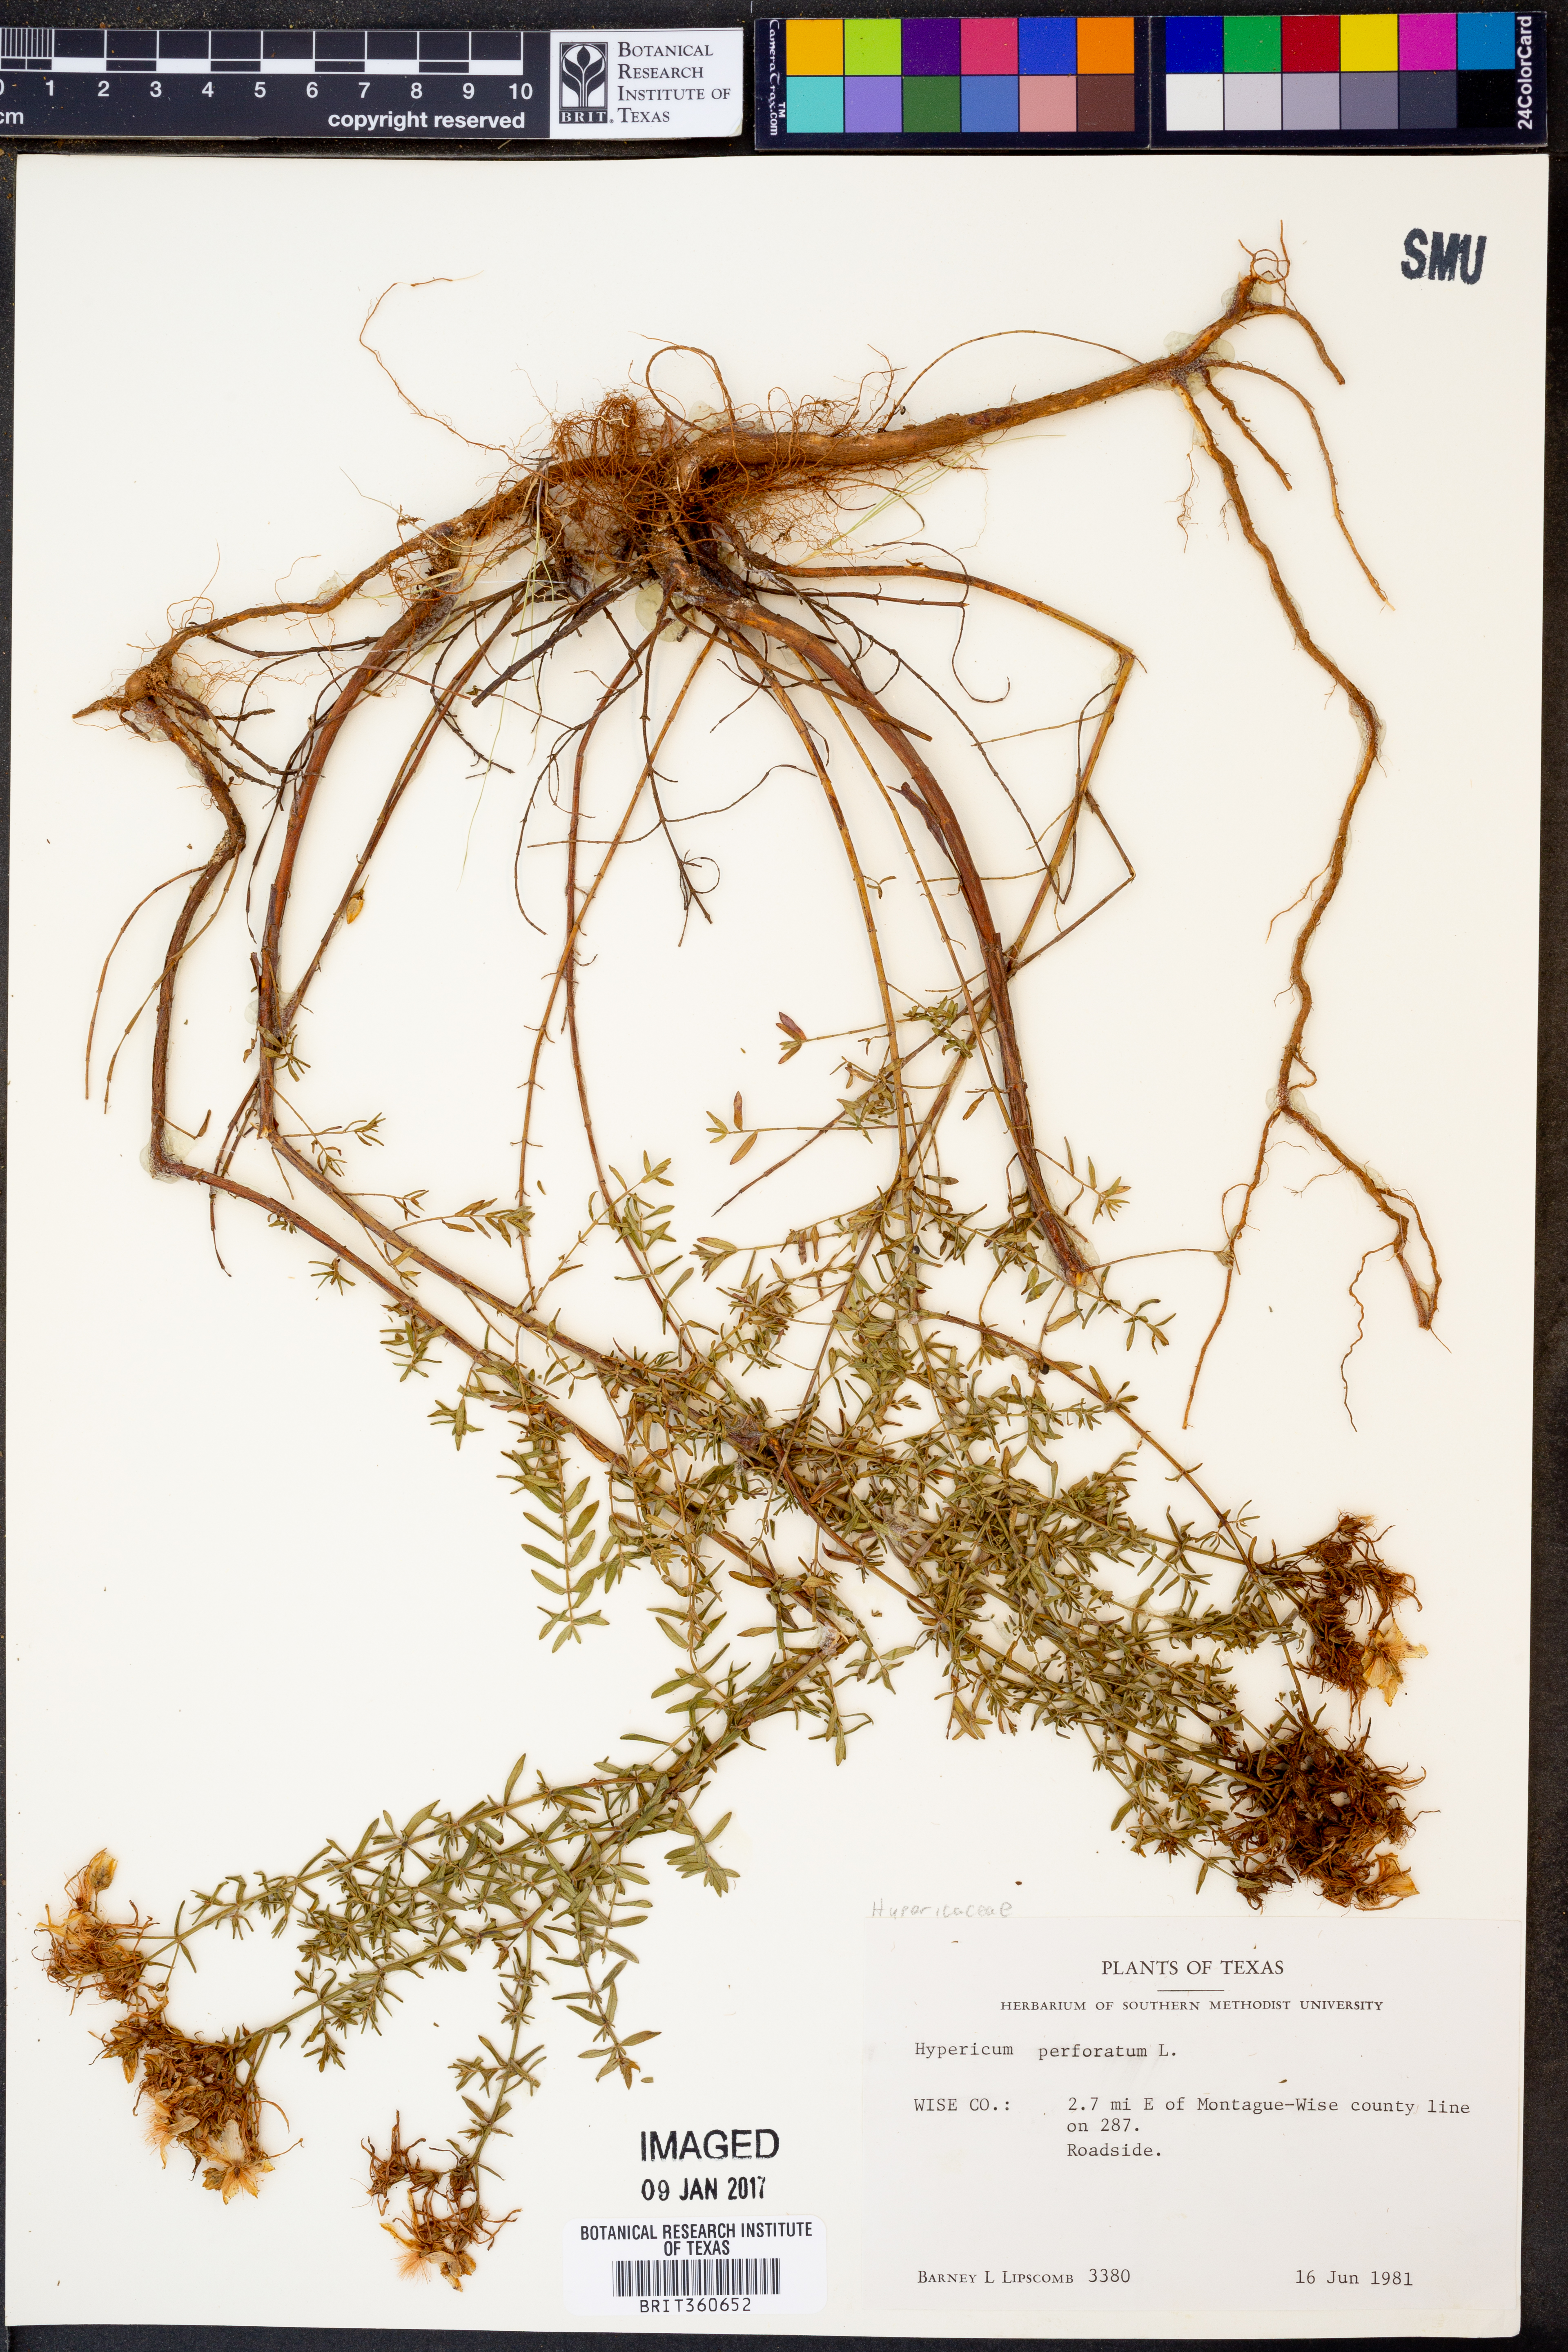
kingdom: Plantae
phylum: Tracheophyta
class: Magnoliopsida
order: Malpighiales
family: Hypericaceae
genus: Hypericum
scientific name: Hypericum perforatum
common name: Common st. johnswort
